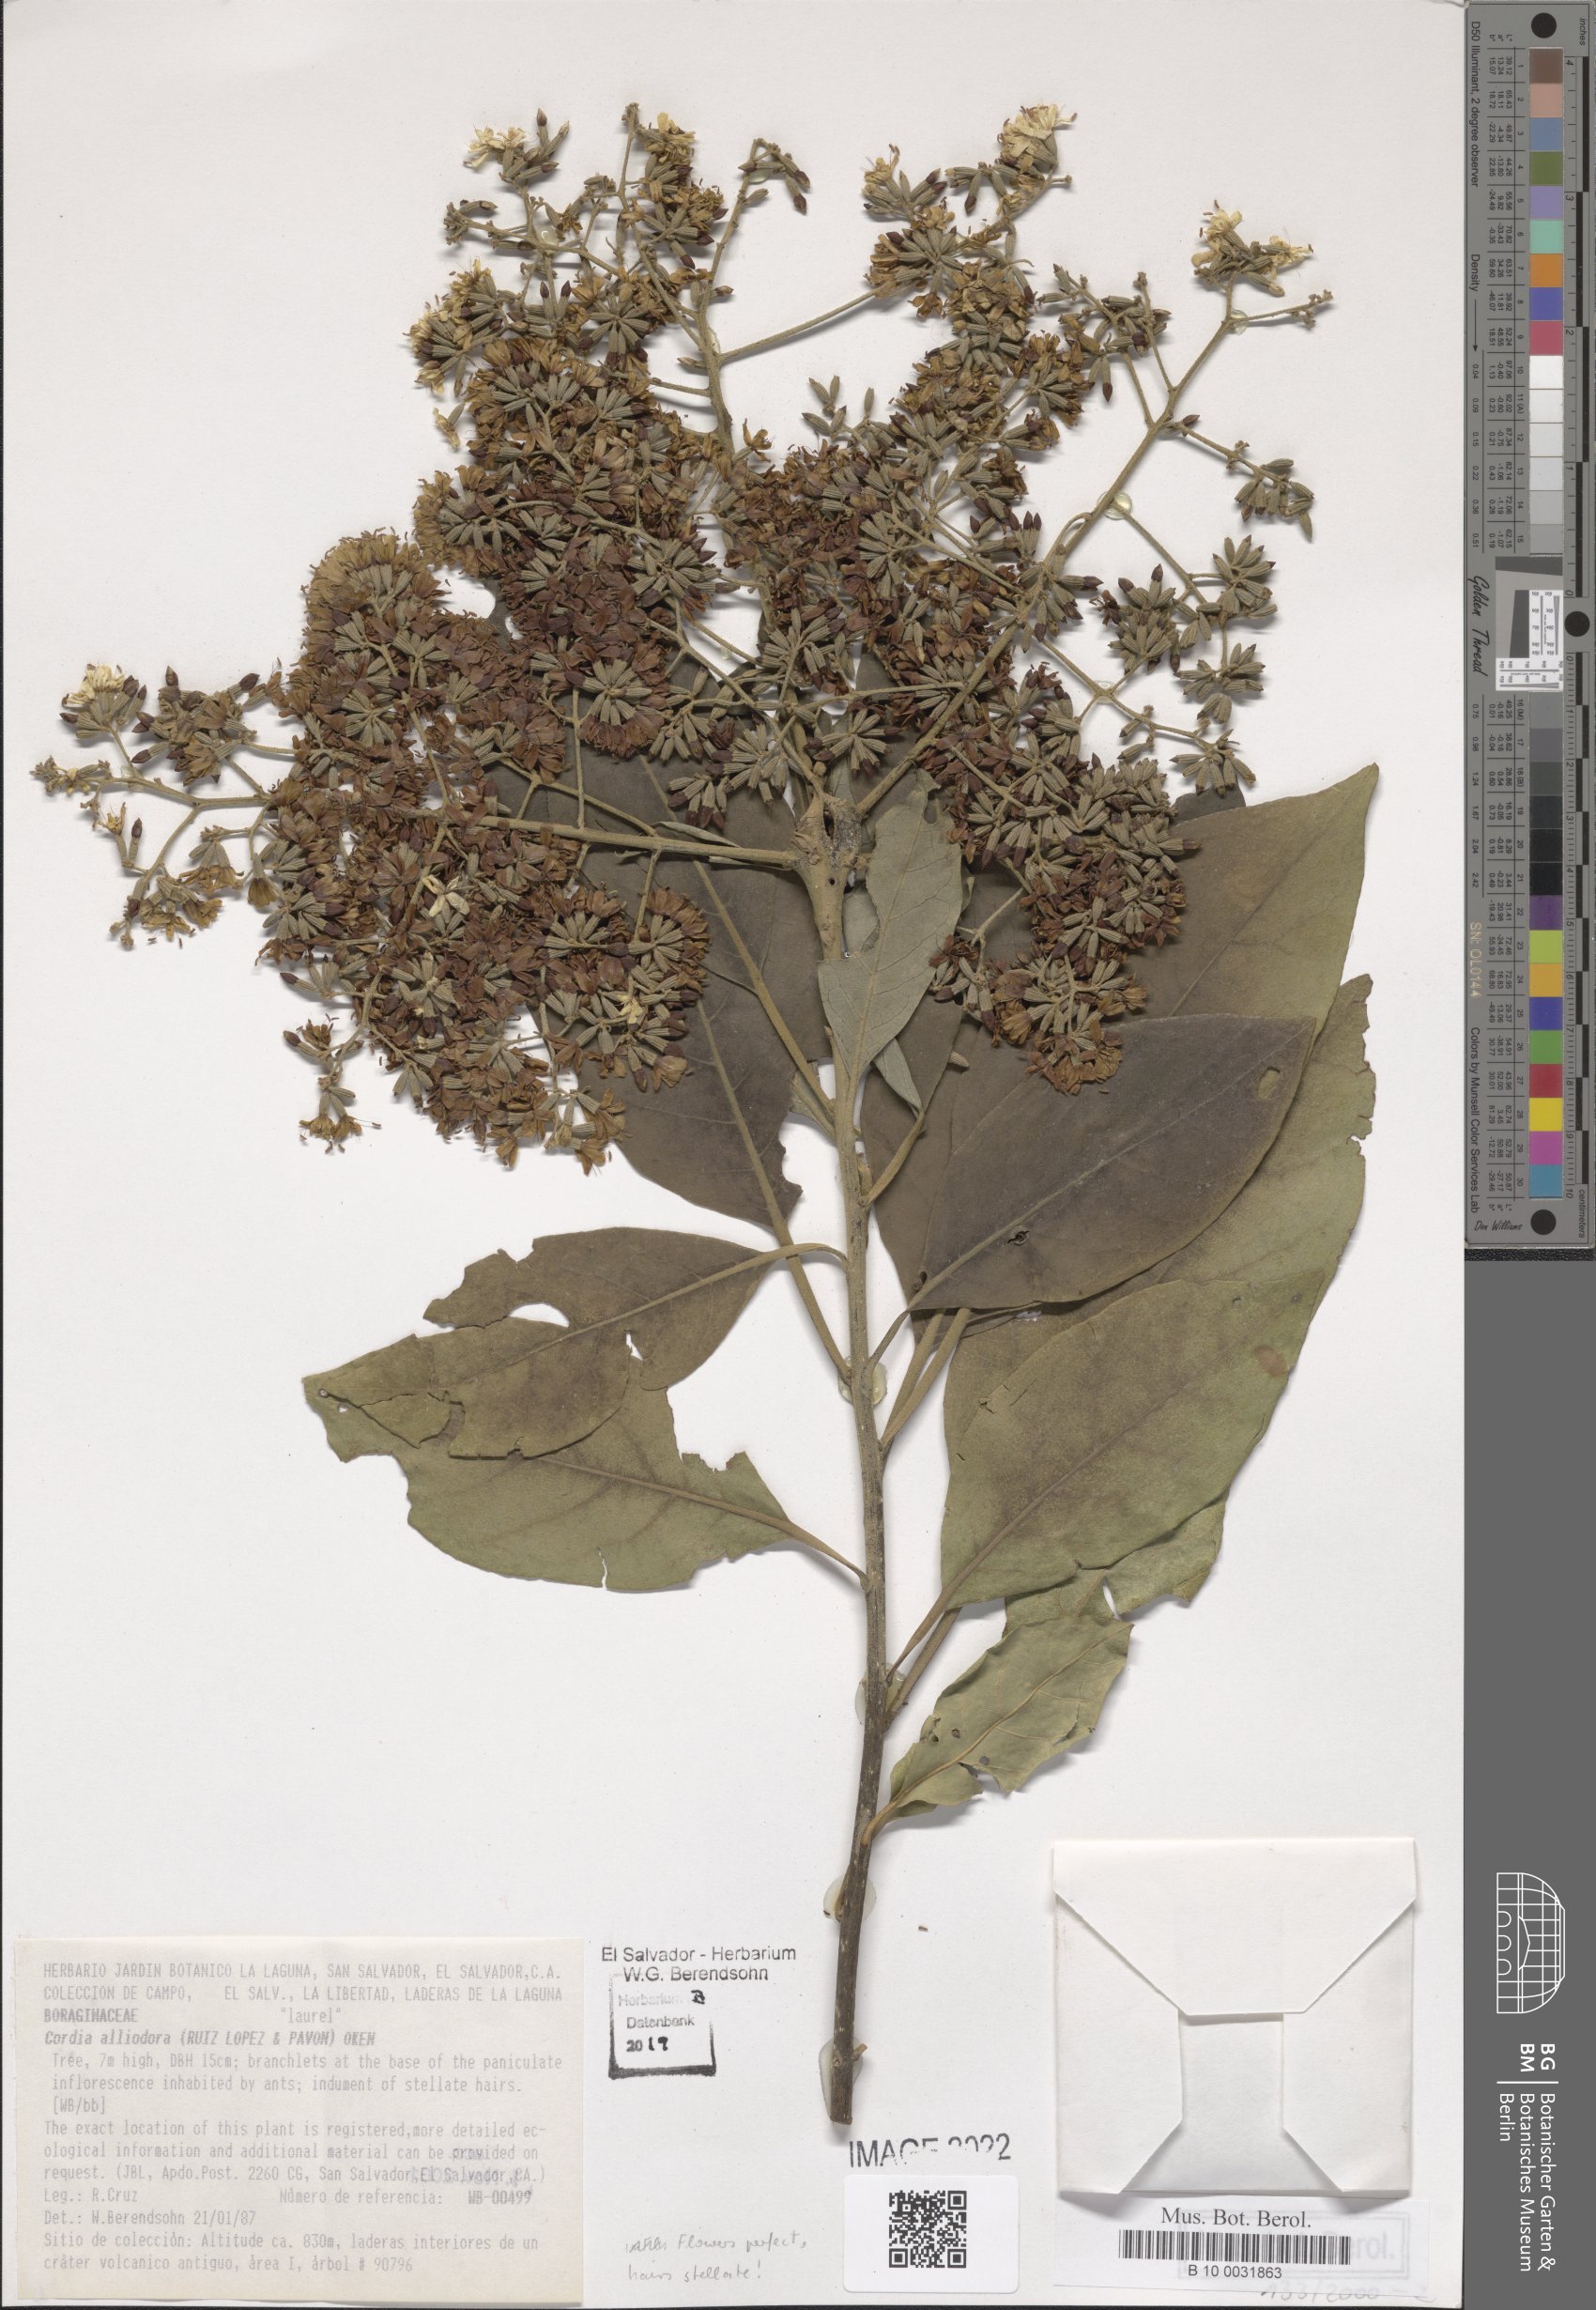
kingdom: Plantae
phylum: Tracheophyta
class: Magnoliopsida
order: Boraginales
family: Cordiaceae
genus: Cordia
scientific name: Cordia alliodora
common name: Spanish elm
